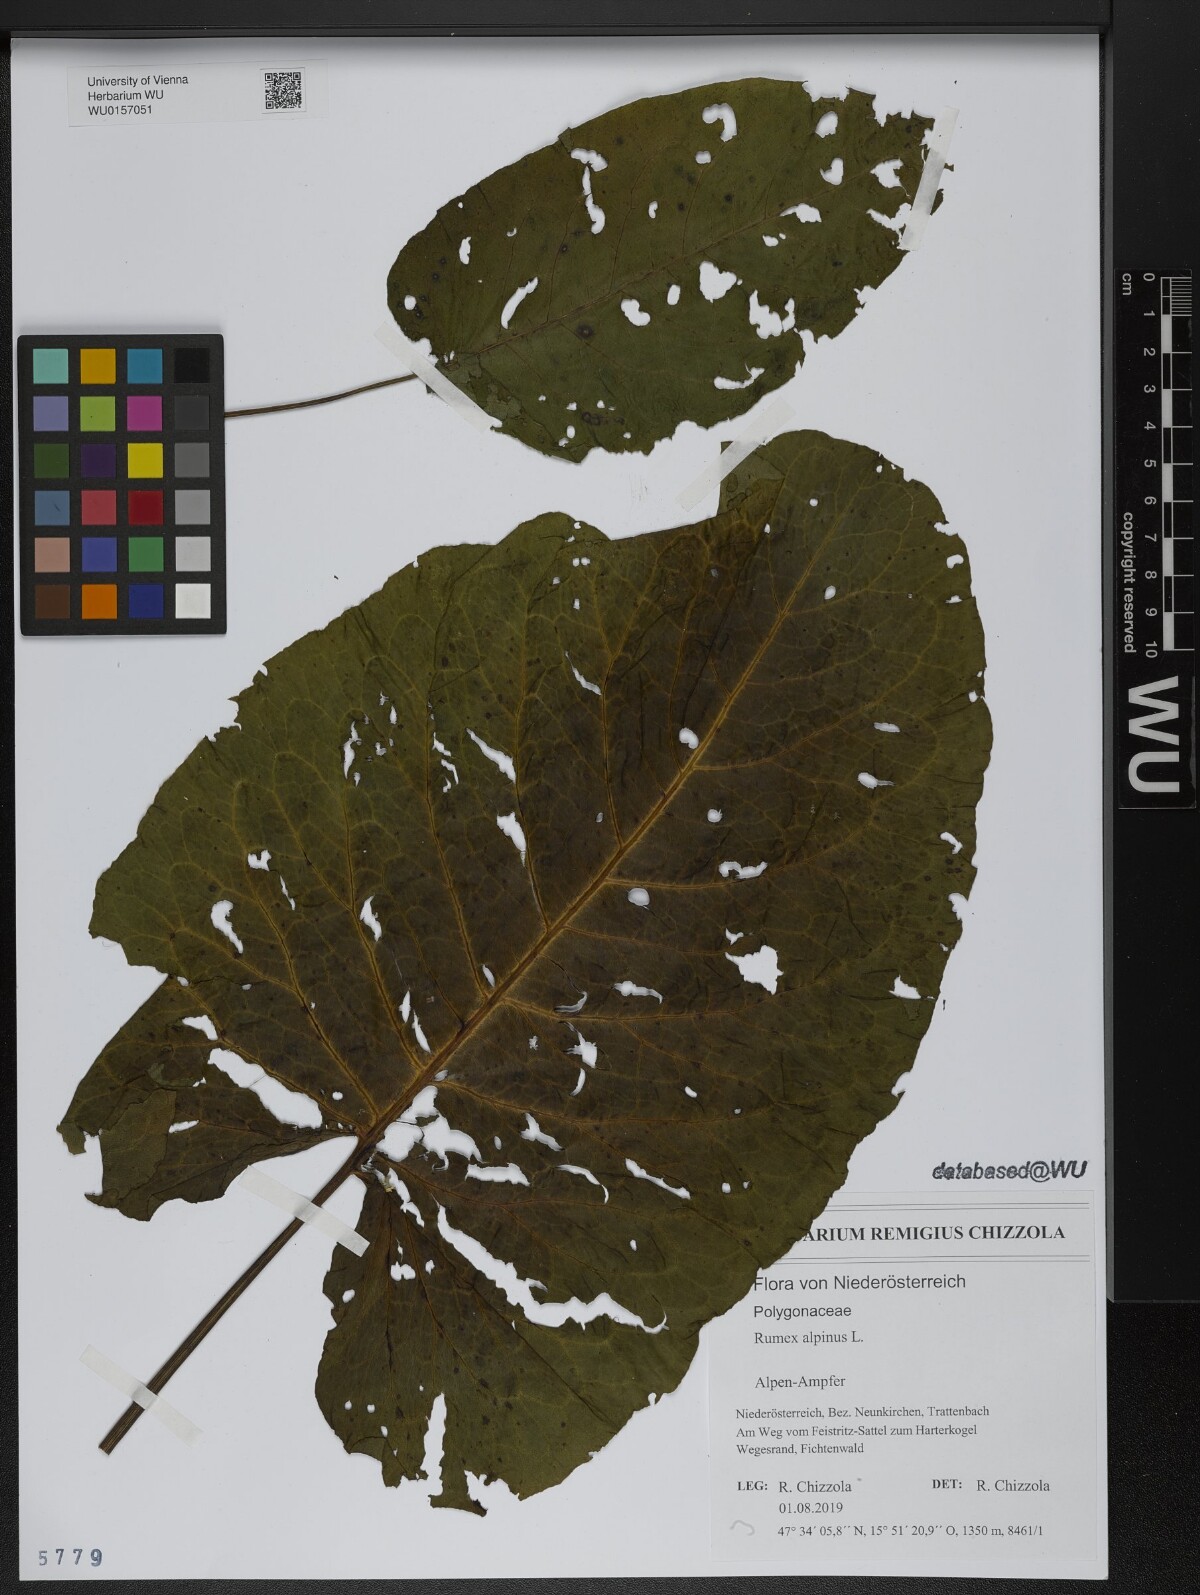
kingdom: Plantae
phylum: Tracheophyta
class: Magnoliopsida
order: Caryophyllales
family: Polygonaceae
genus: Rumex
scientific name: Rumex alpinus
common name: Alpine dock
